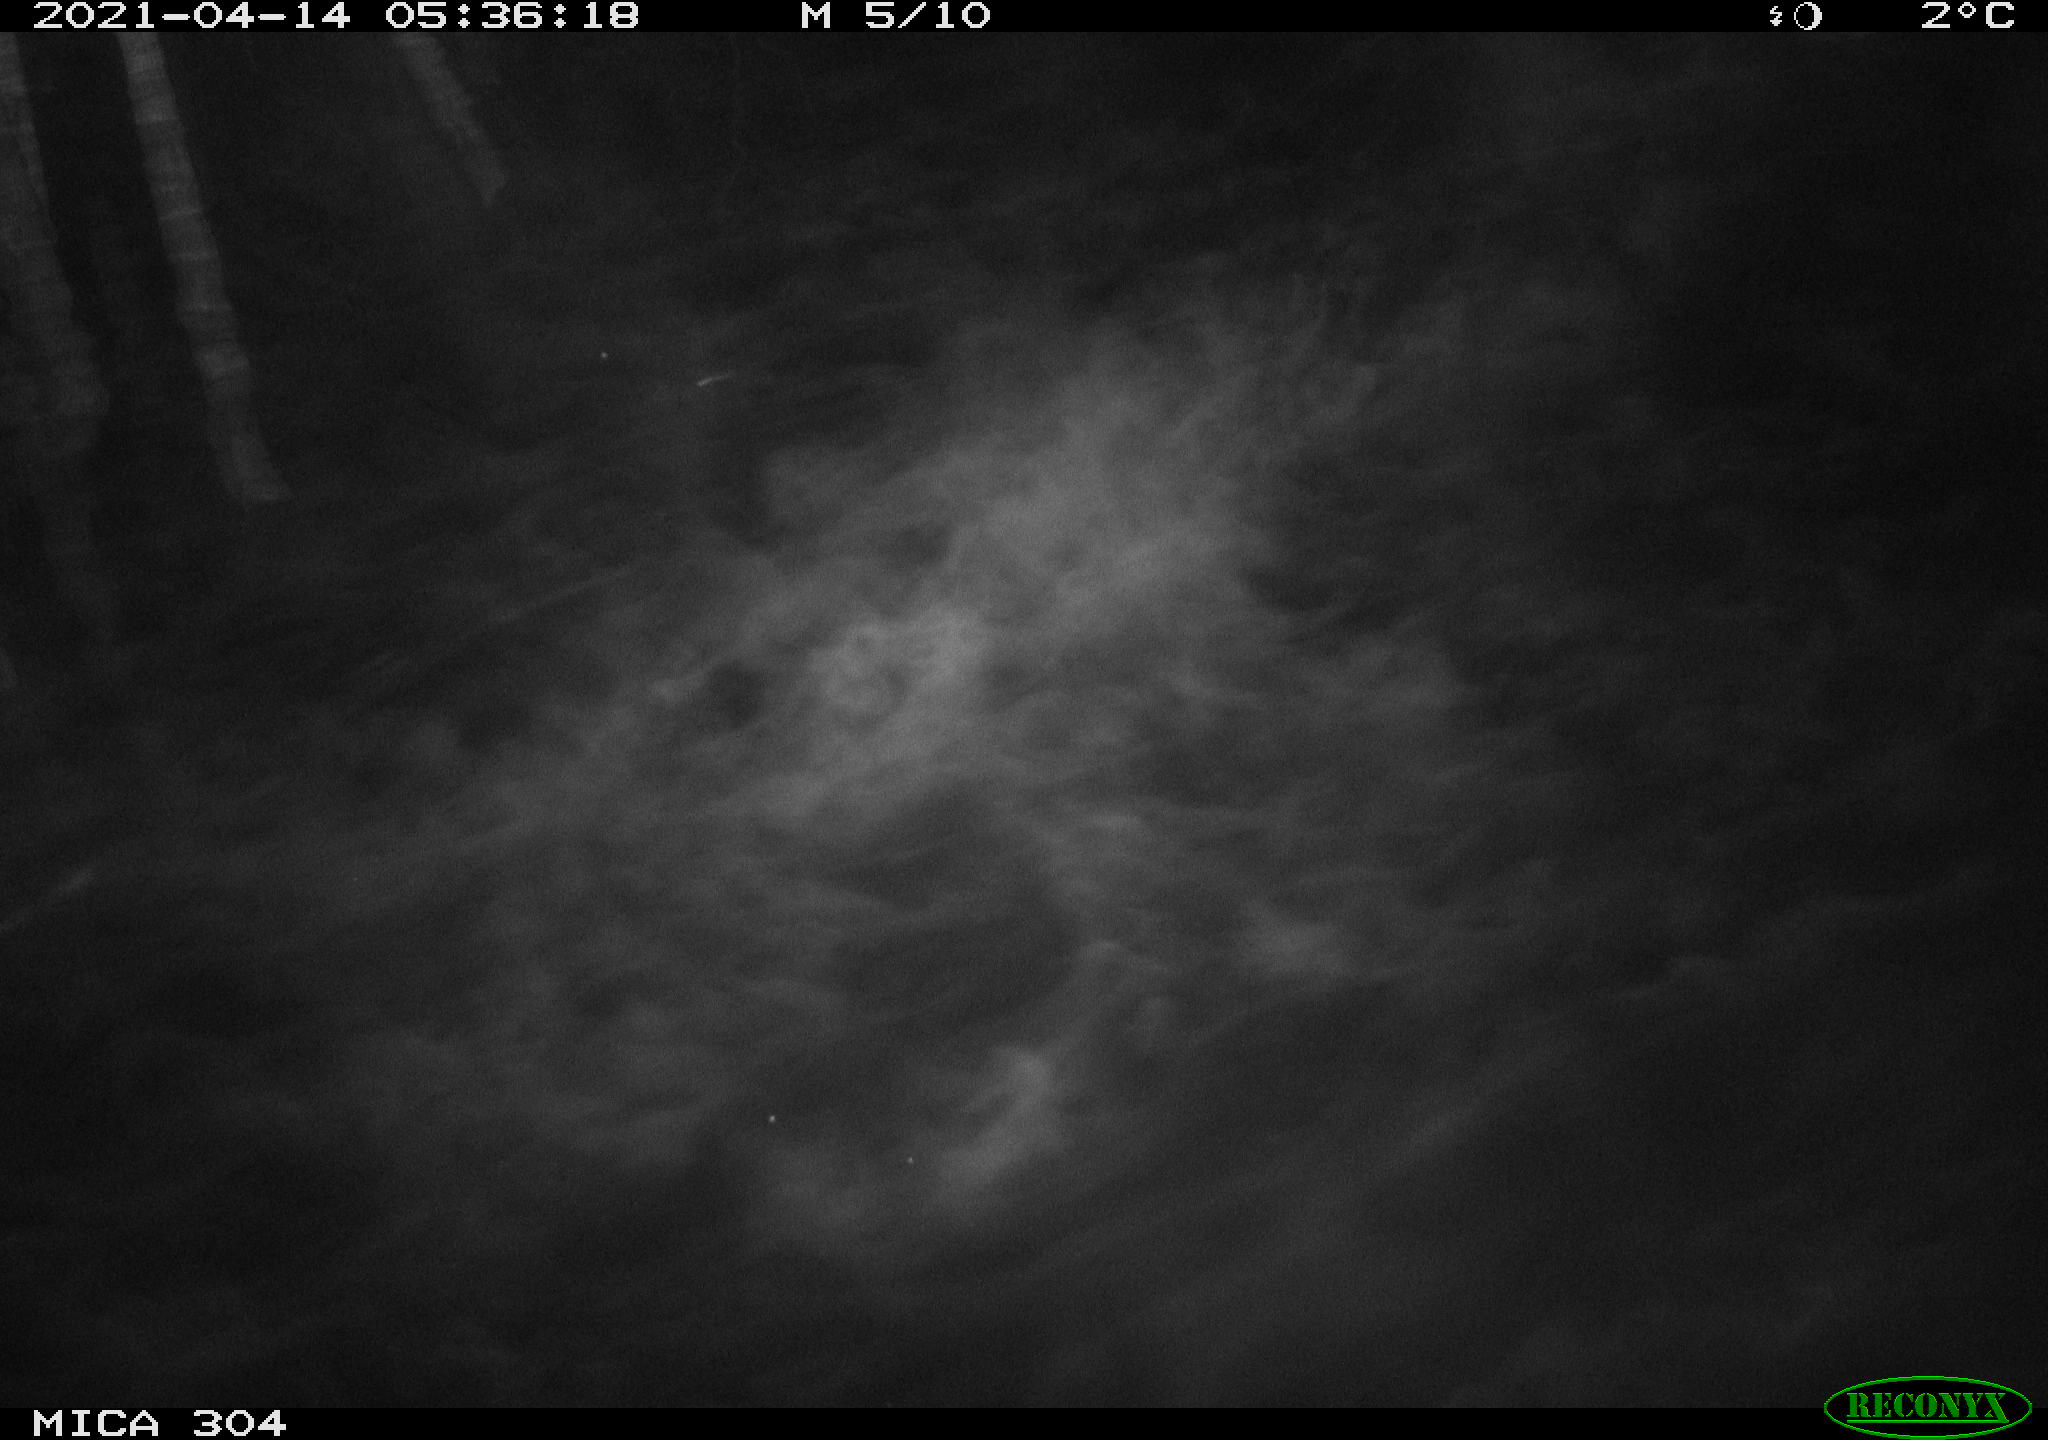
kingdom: Animalia
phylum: Chordata
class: Aves
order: Anseriformes
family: Anatidae
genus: Anas
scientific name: Anas
